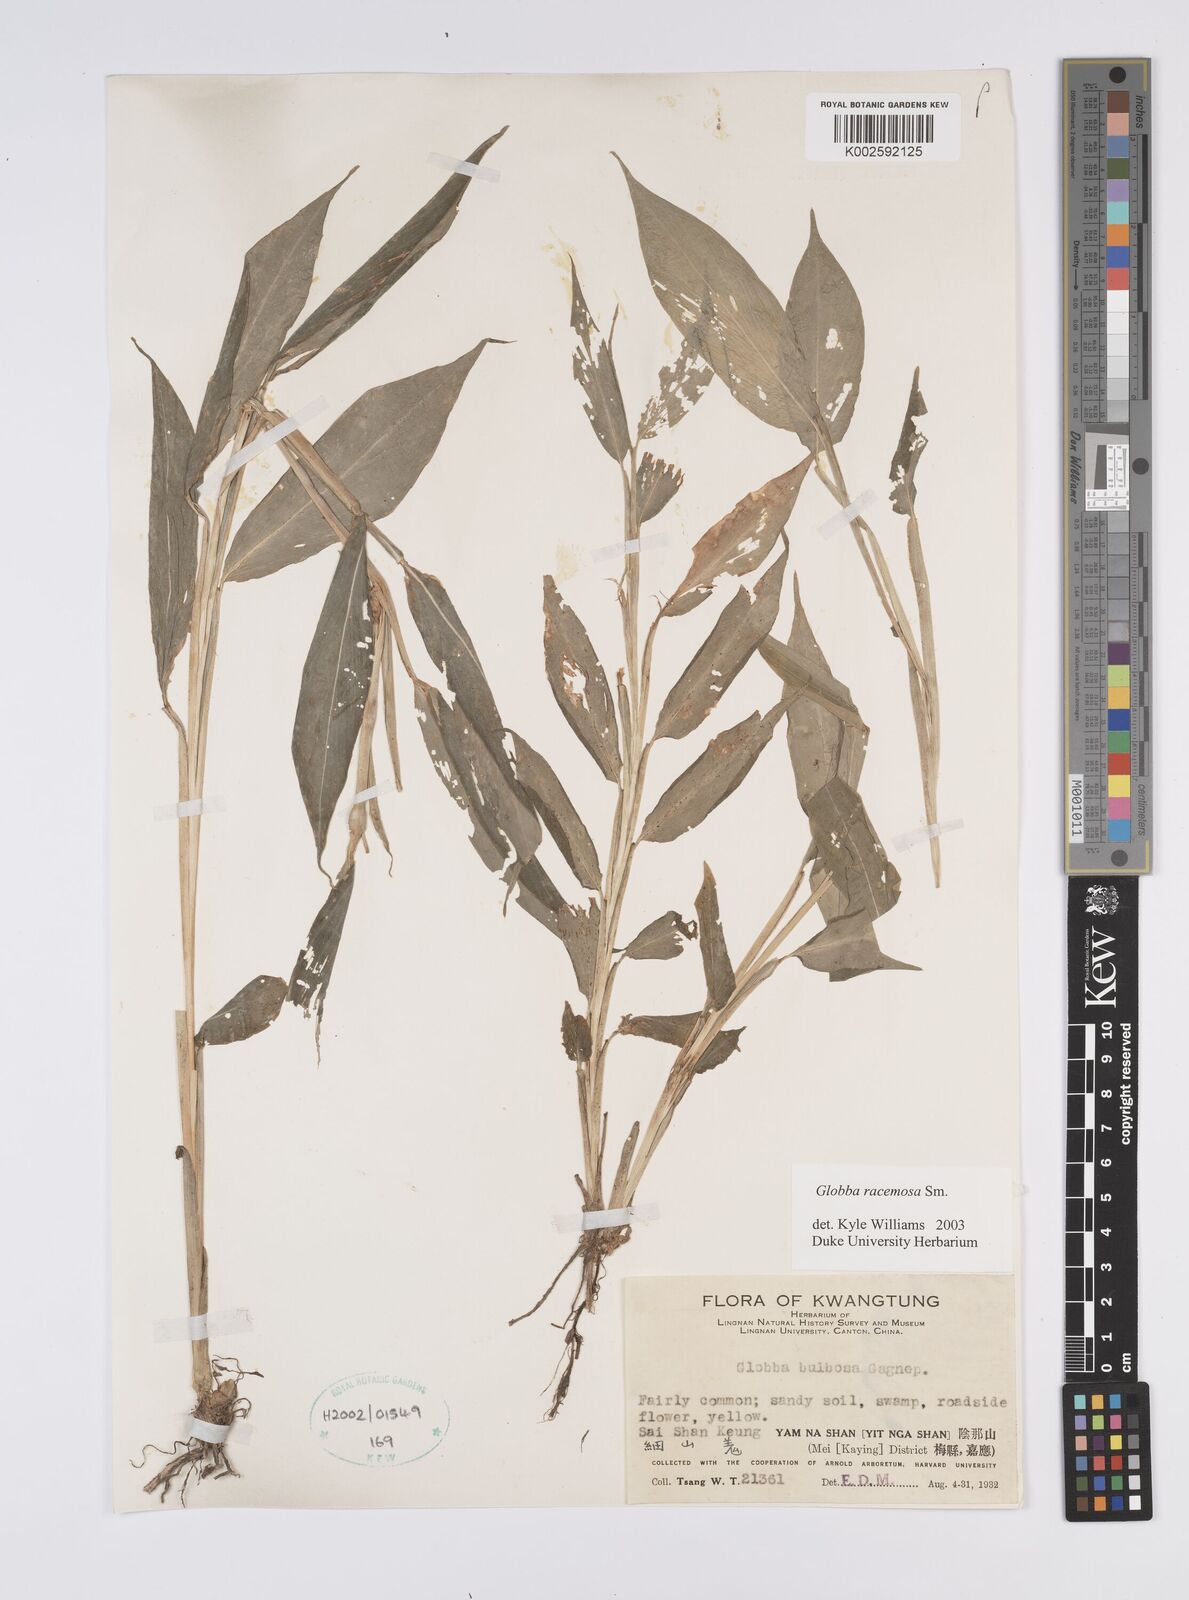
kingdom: Plantae
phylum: Tracheophyta
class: Liliopsida
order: Zingiberales
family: Zingiberaceae
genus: Globba
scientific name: Globba racemosa
